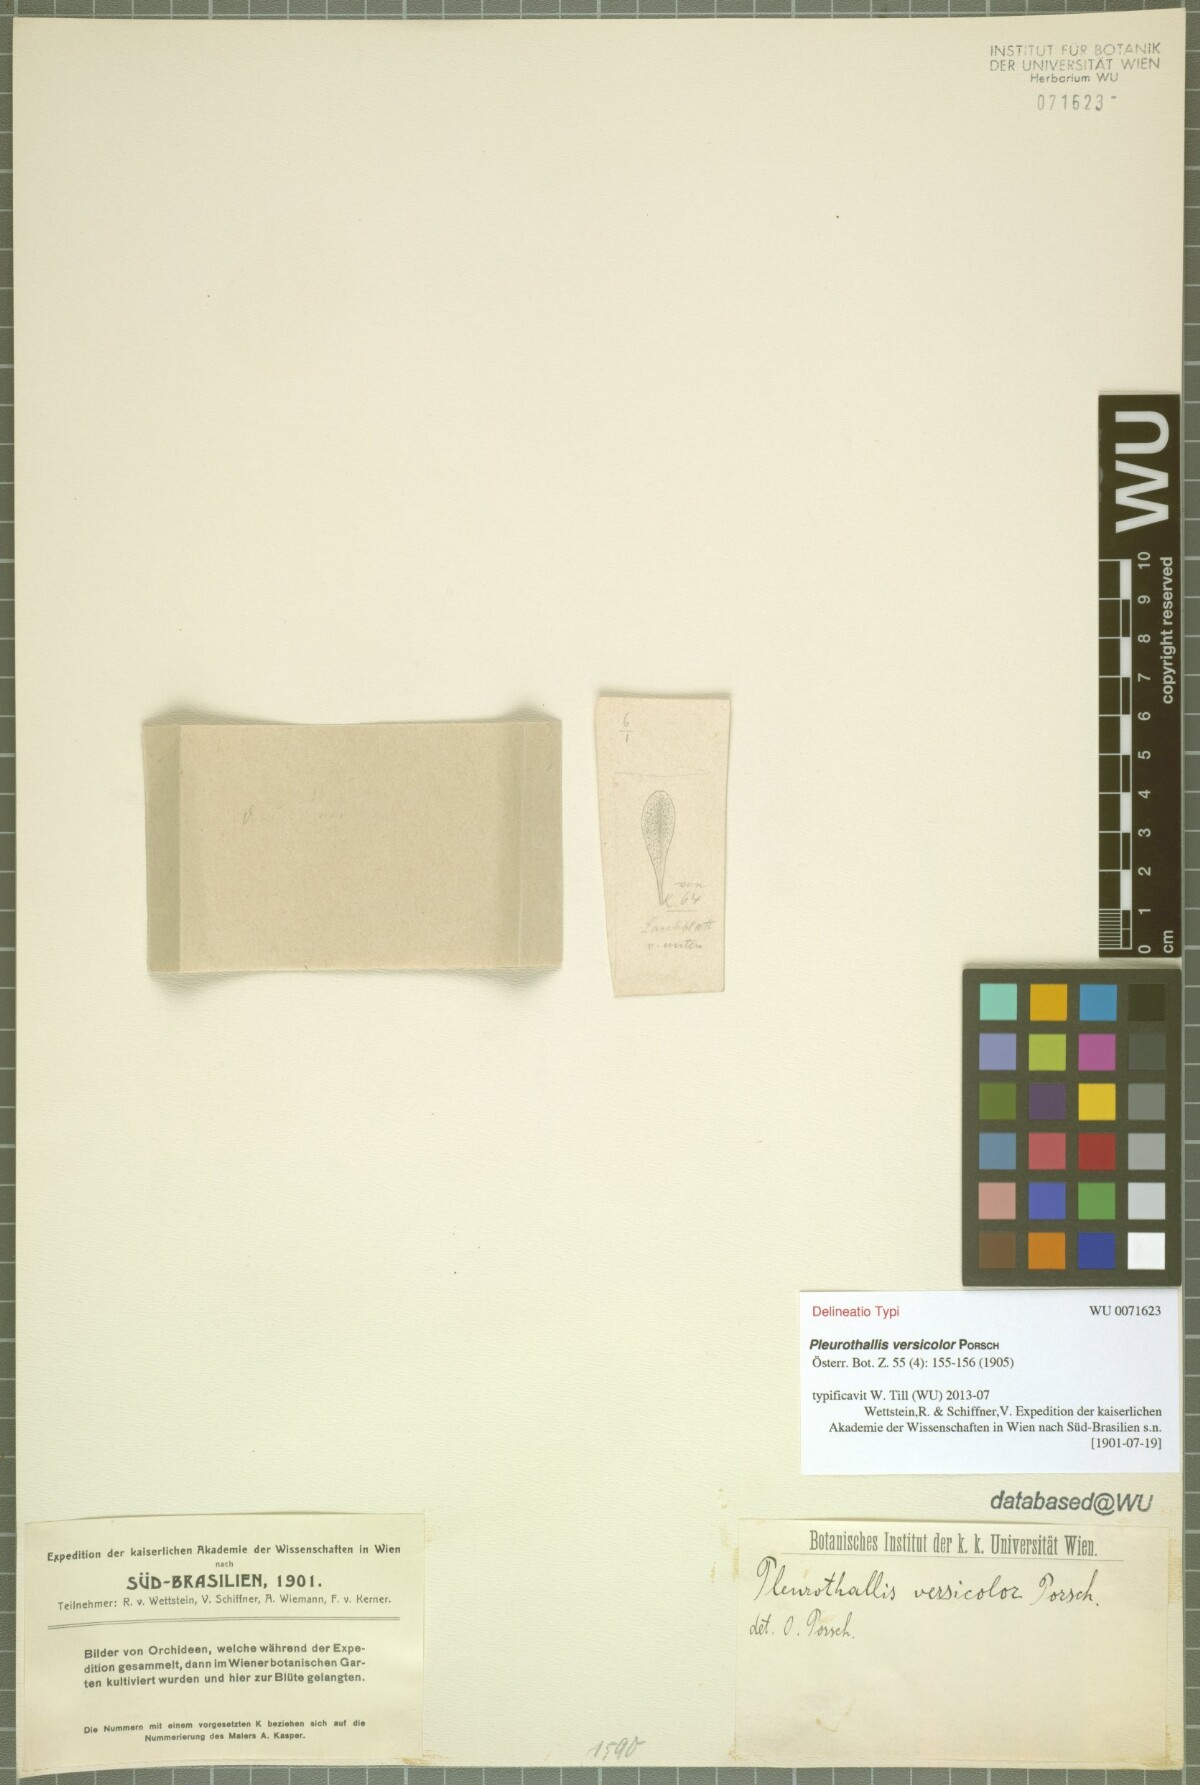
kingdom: Plantae
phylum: Tracheophyta
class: Liliopsida
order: Asparagales
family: Orchidaceae
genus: Pabstiella
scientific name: Pabstiella versicolor
